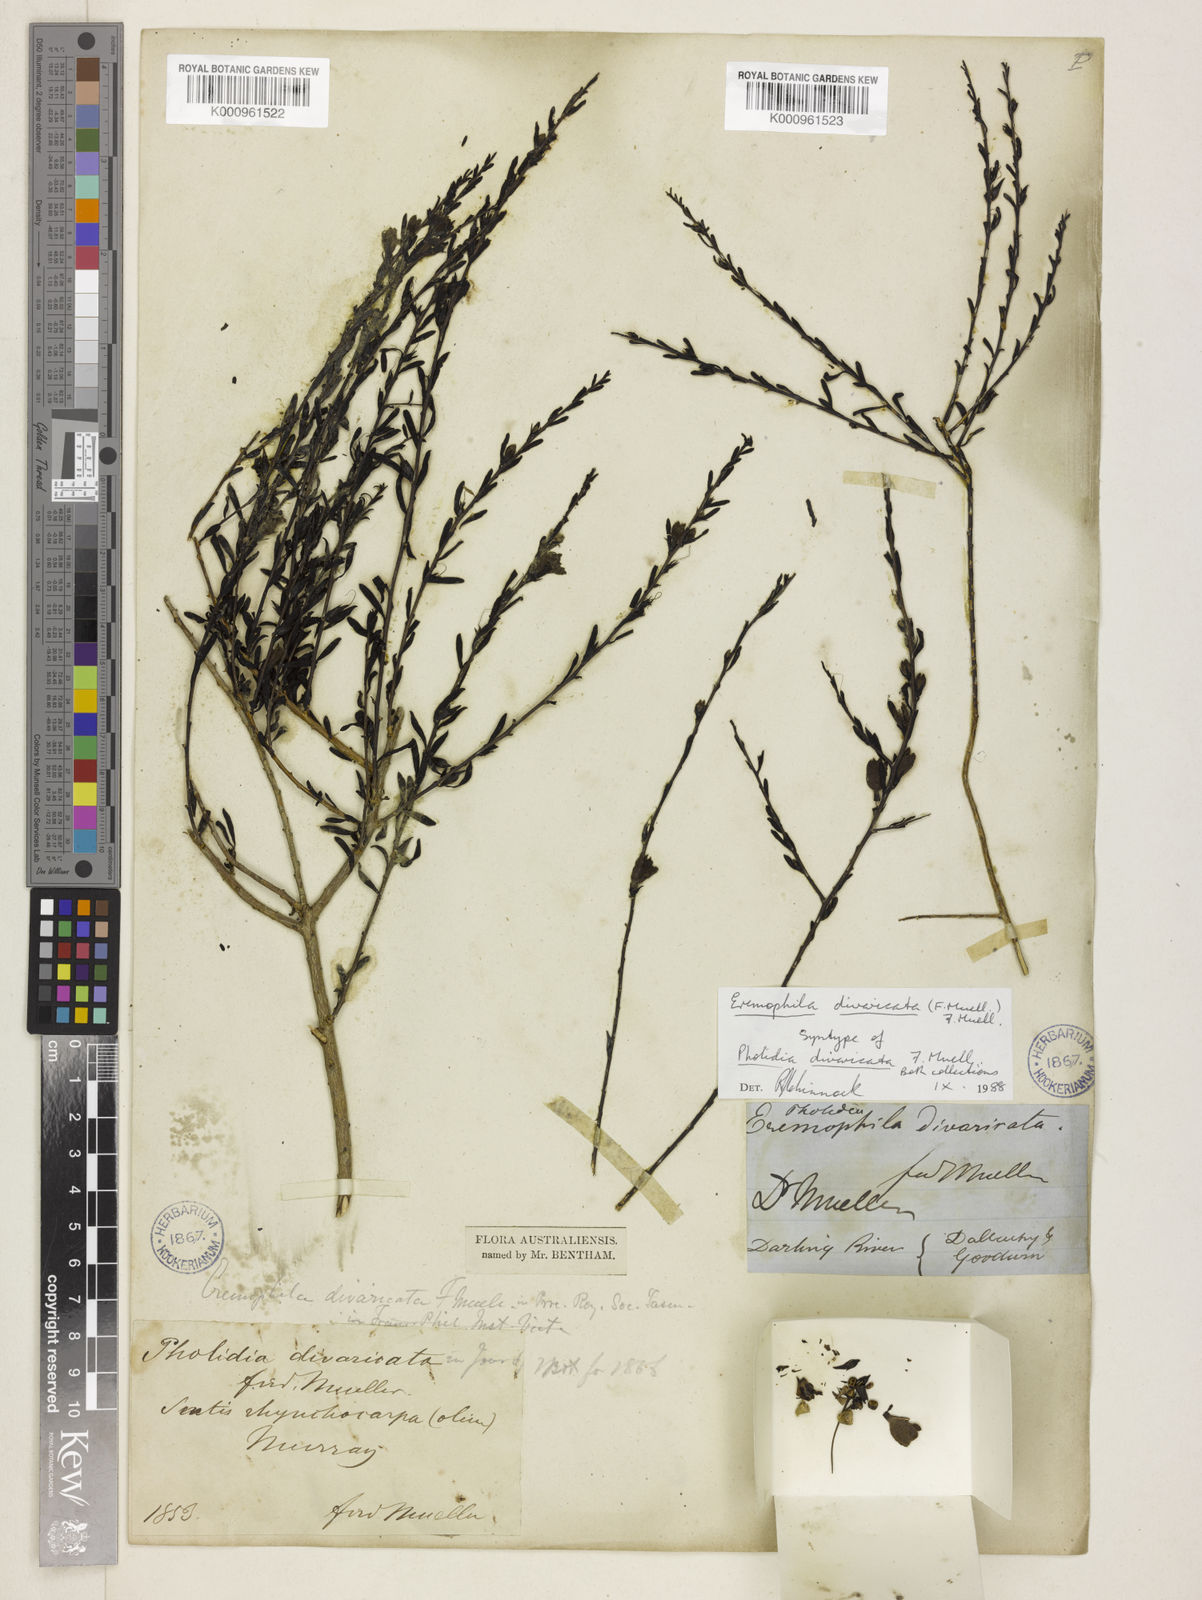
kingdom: Plantae
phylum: Tracheophyta
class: Magnoliopsida
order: Lamiales
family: Scrophulariaceae
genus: Eremophila
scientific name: Eremophila divaricata
